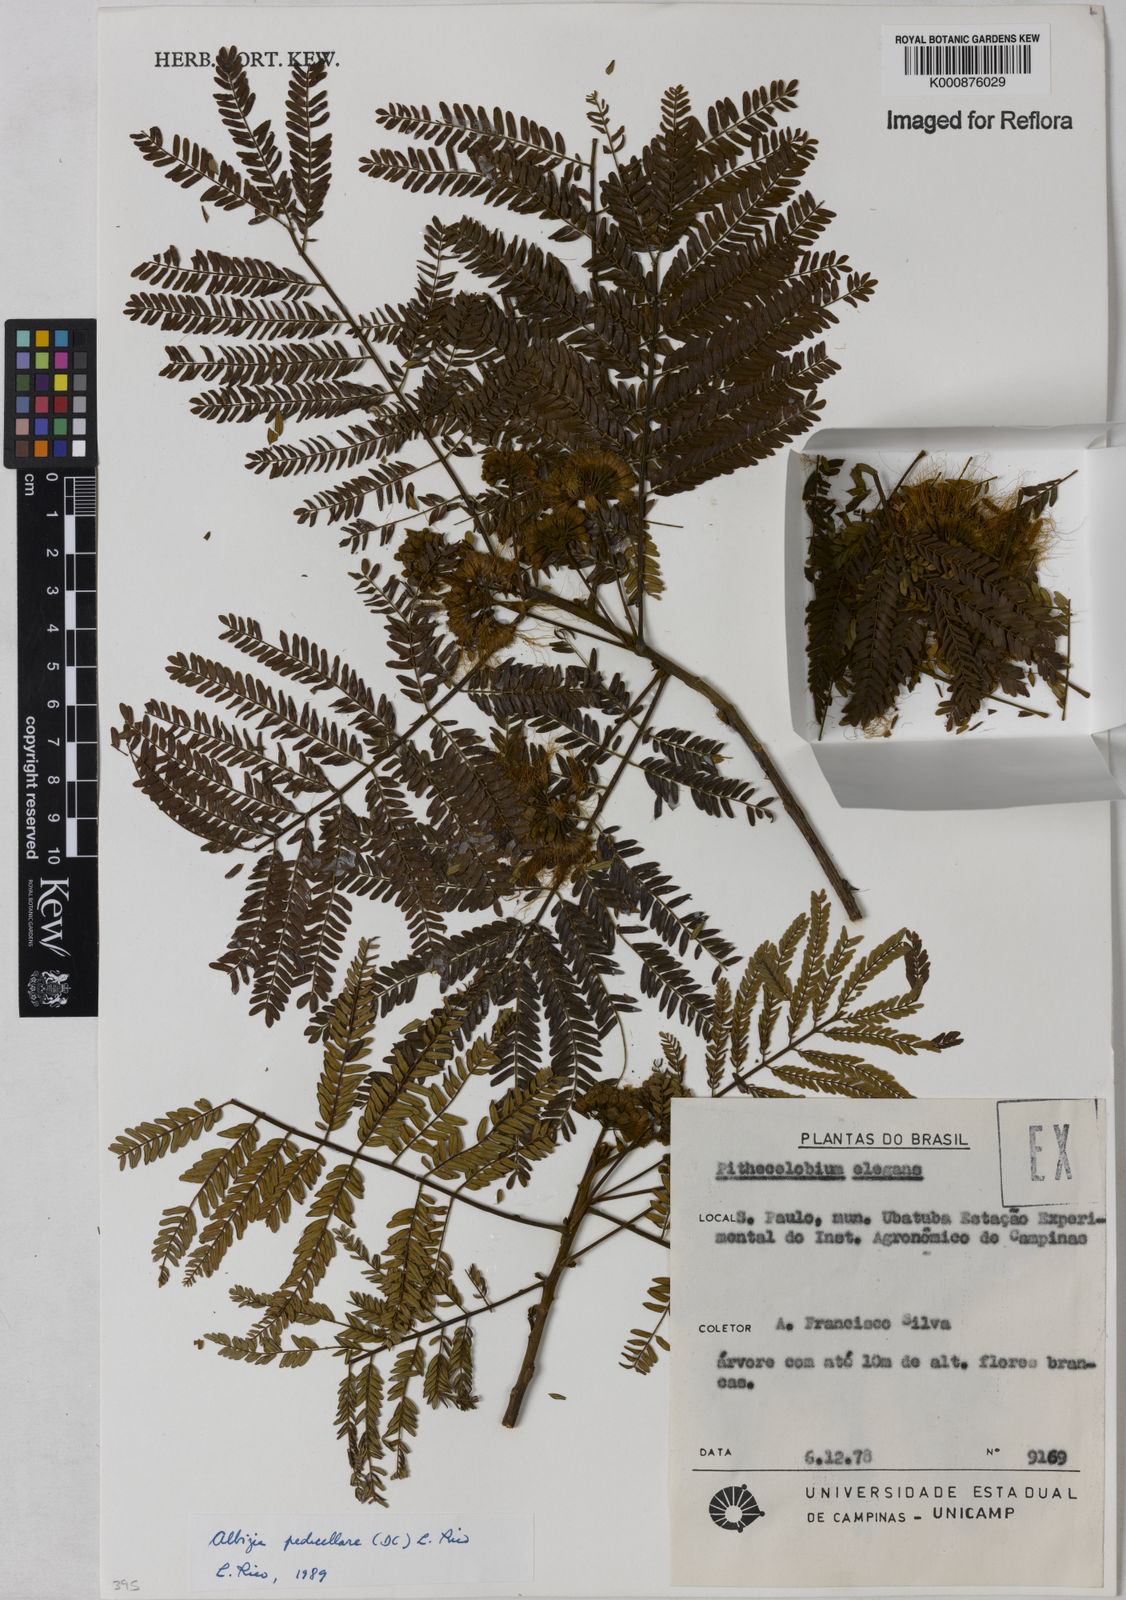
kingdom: Plantae
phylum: Tracheophyta
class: Magnoliopsida
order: Fabales
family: Fabaceae
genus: Balizia
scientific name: Balizia pedicellaris
